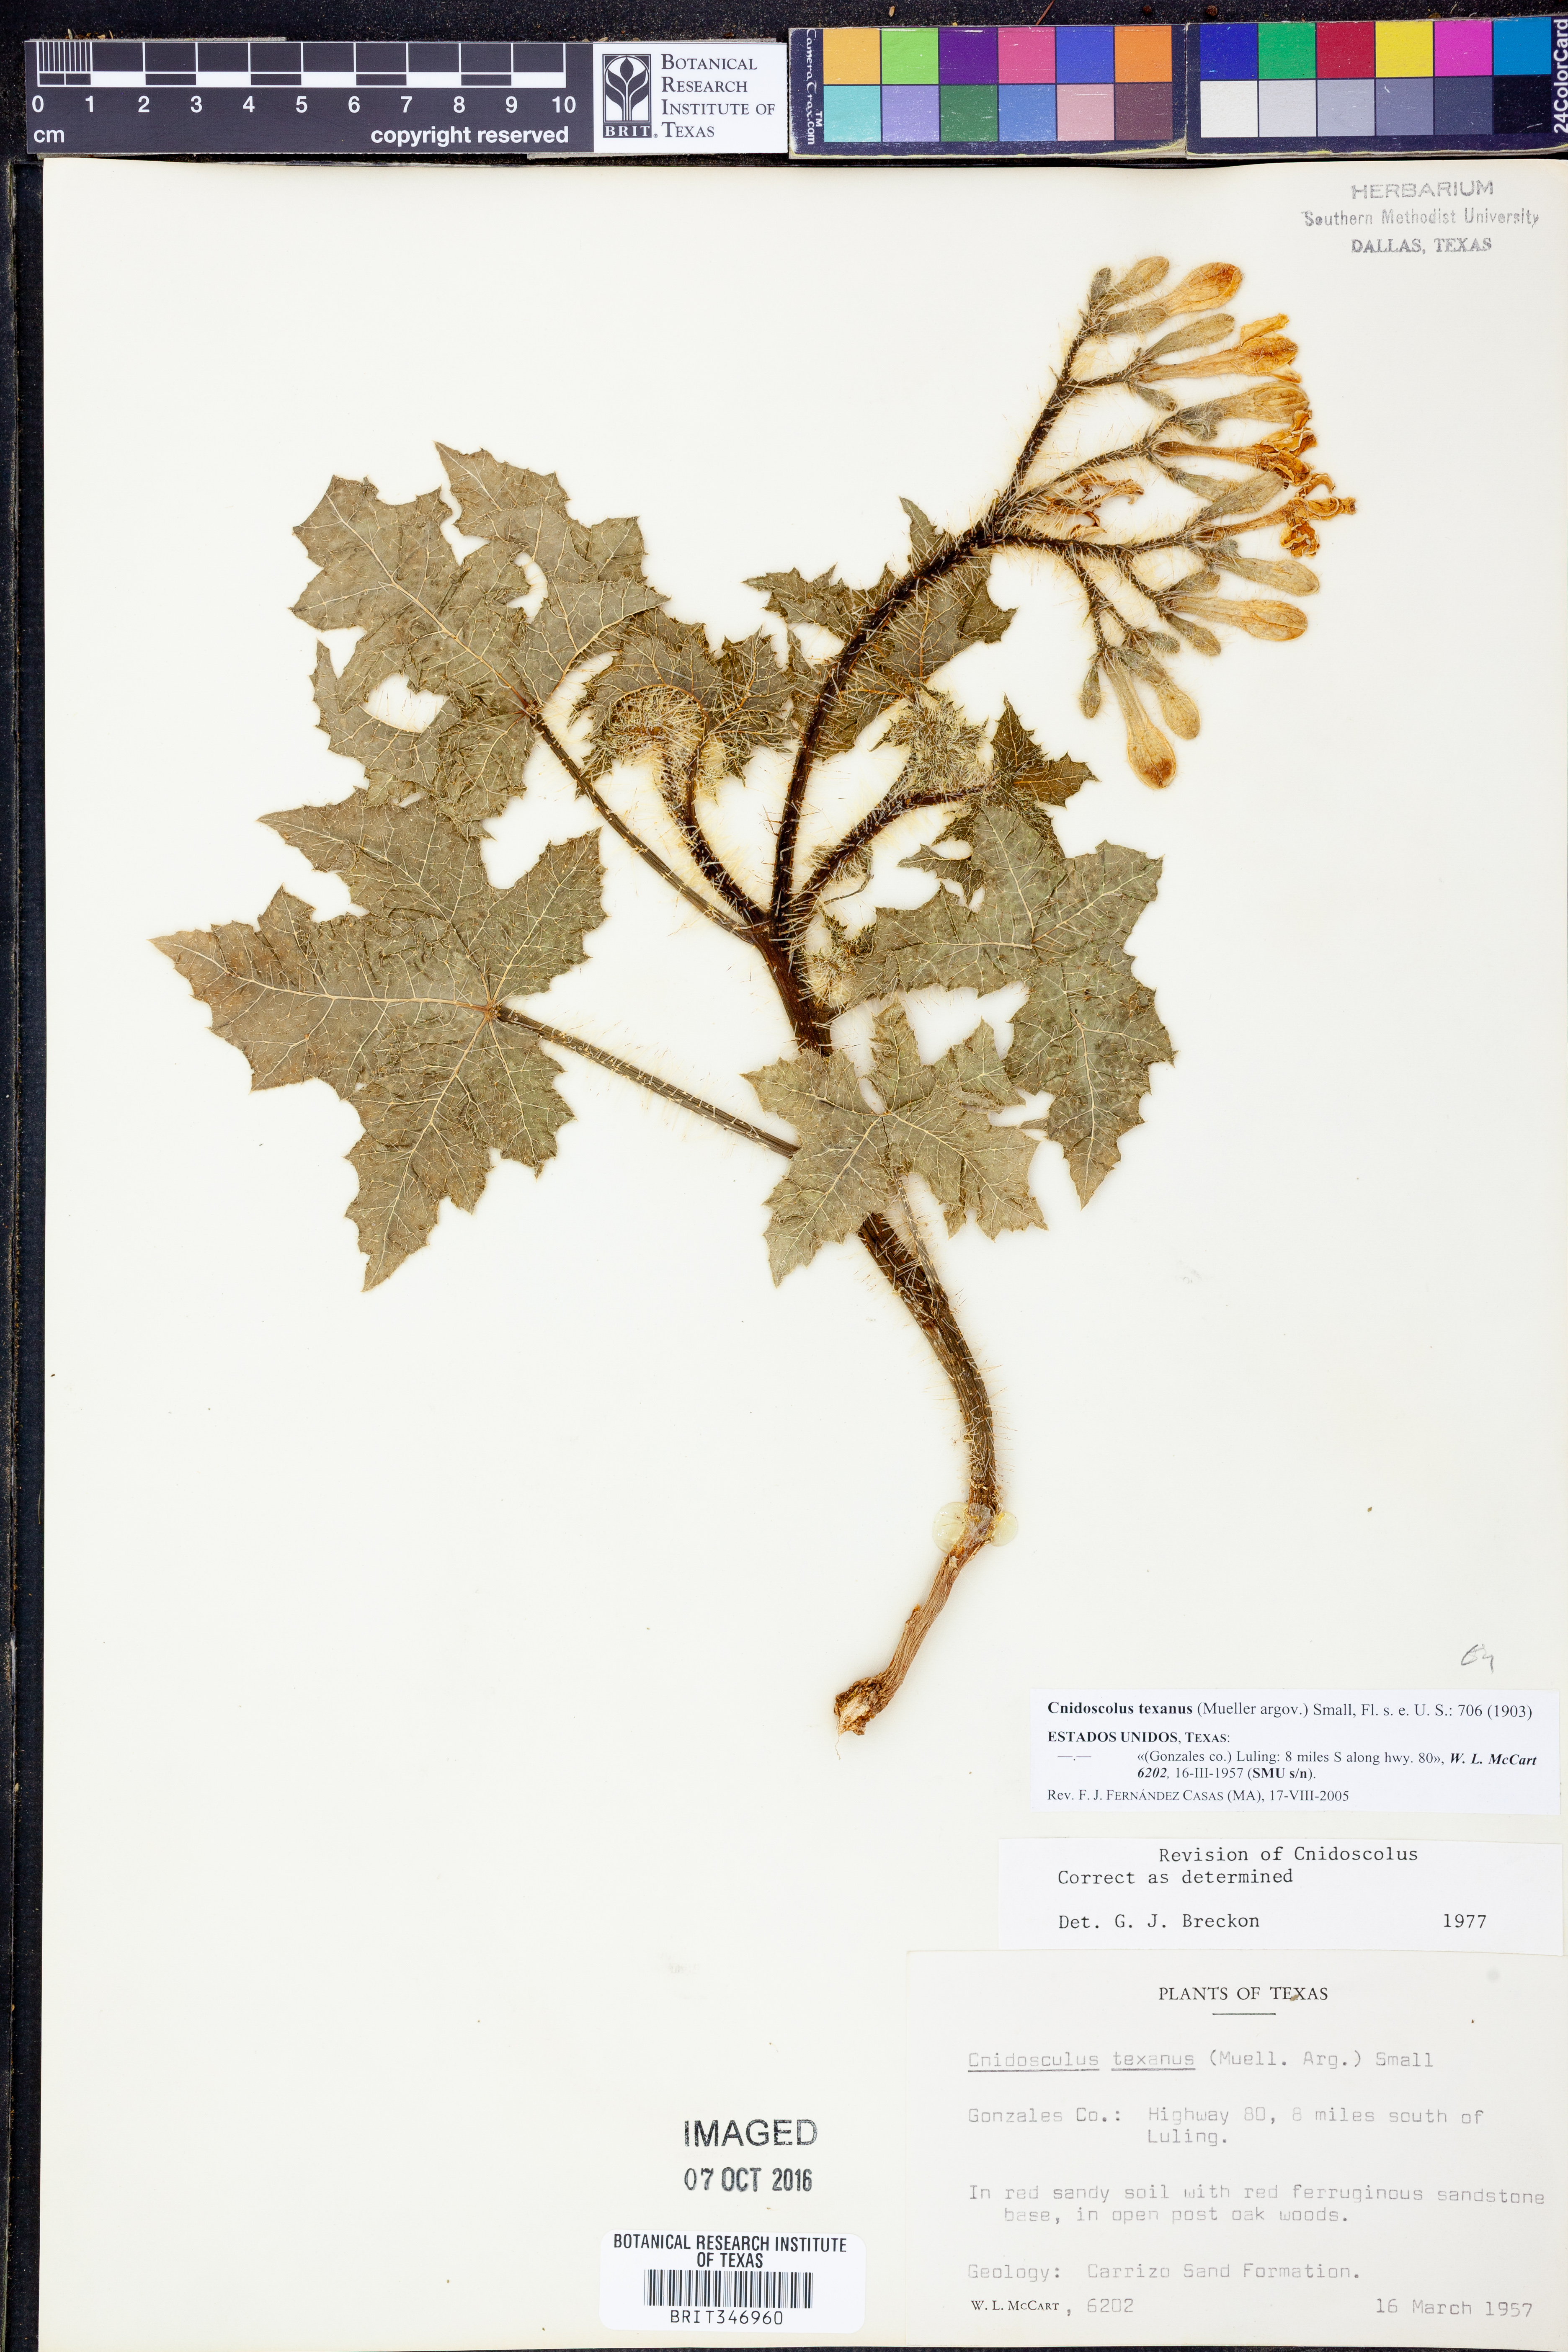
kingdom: Plantae
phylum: Tracheophyta
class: Magnoliopsida
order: Malpighiales
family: Euphorbiaceae
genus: Cnidoscolus
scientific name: Cnidoscolus texanus
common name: Texas bull-nettle
